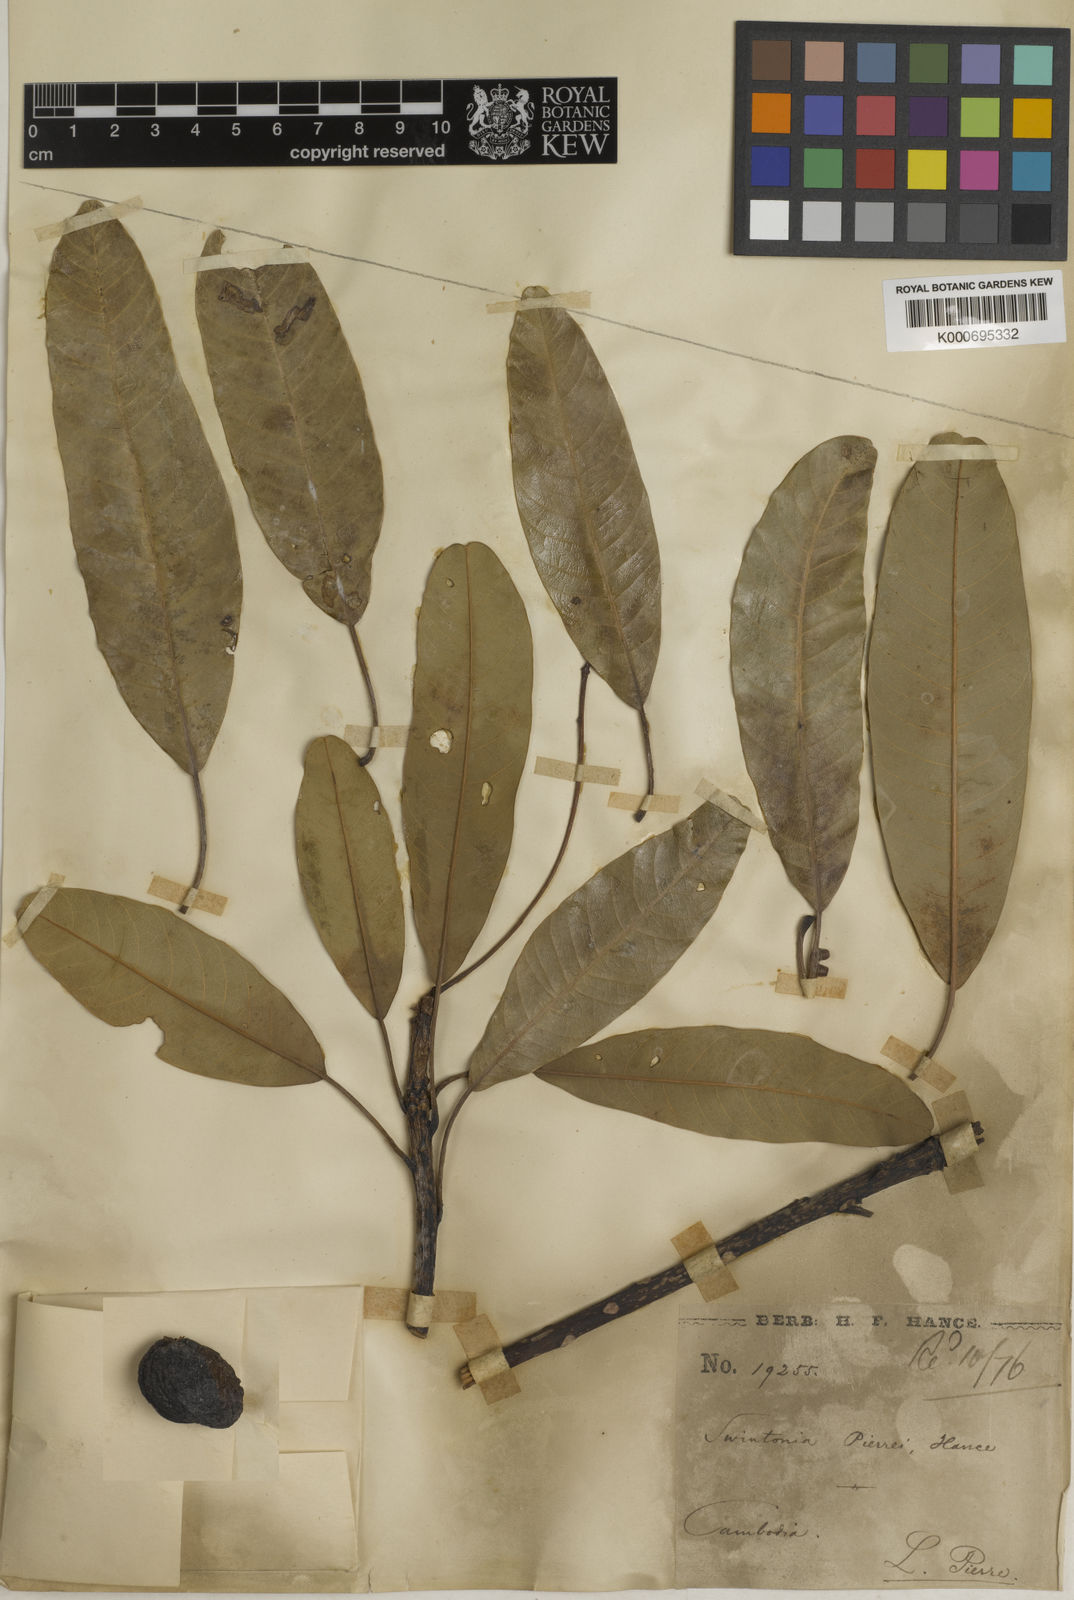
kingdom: Plantae
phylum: Tracheophyta
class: Magnoliopsida
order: Sapindales
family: Anacardiaceae
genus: Swintonia
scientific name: Swintonia pierrei
